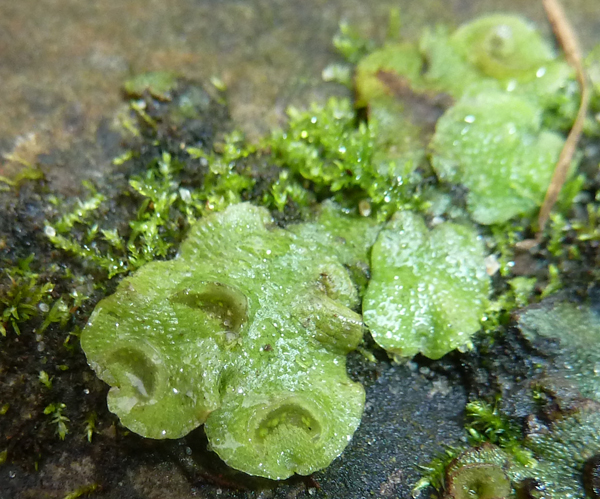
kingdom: Plantae
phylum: Marchantiophyta
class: Marchantiopsida
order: Lunulariales
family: Lunulariaceae
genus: Lunularia
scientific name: Lunularia cruciata
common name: Crescent-cup liverwort
